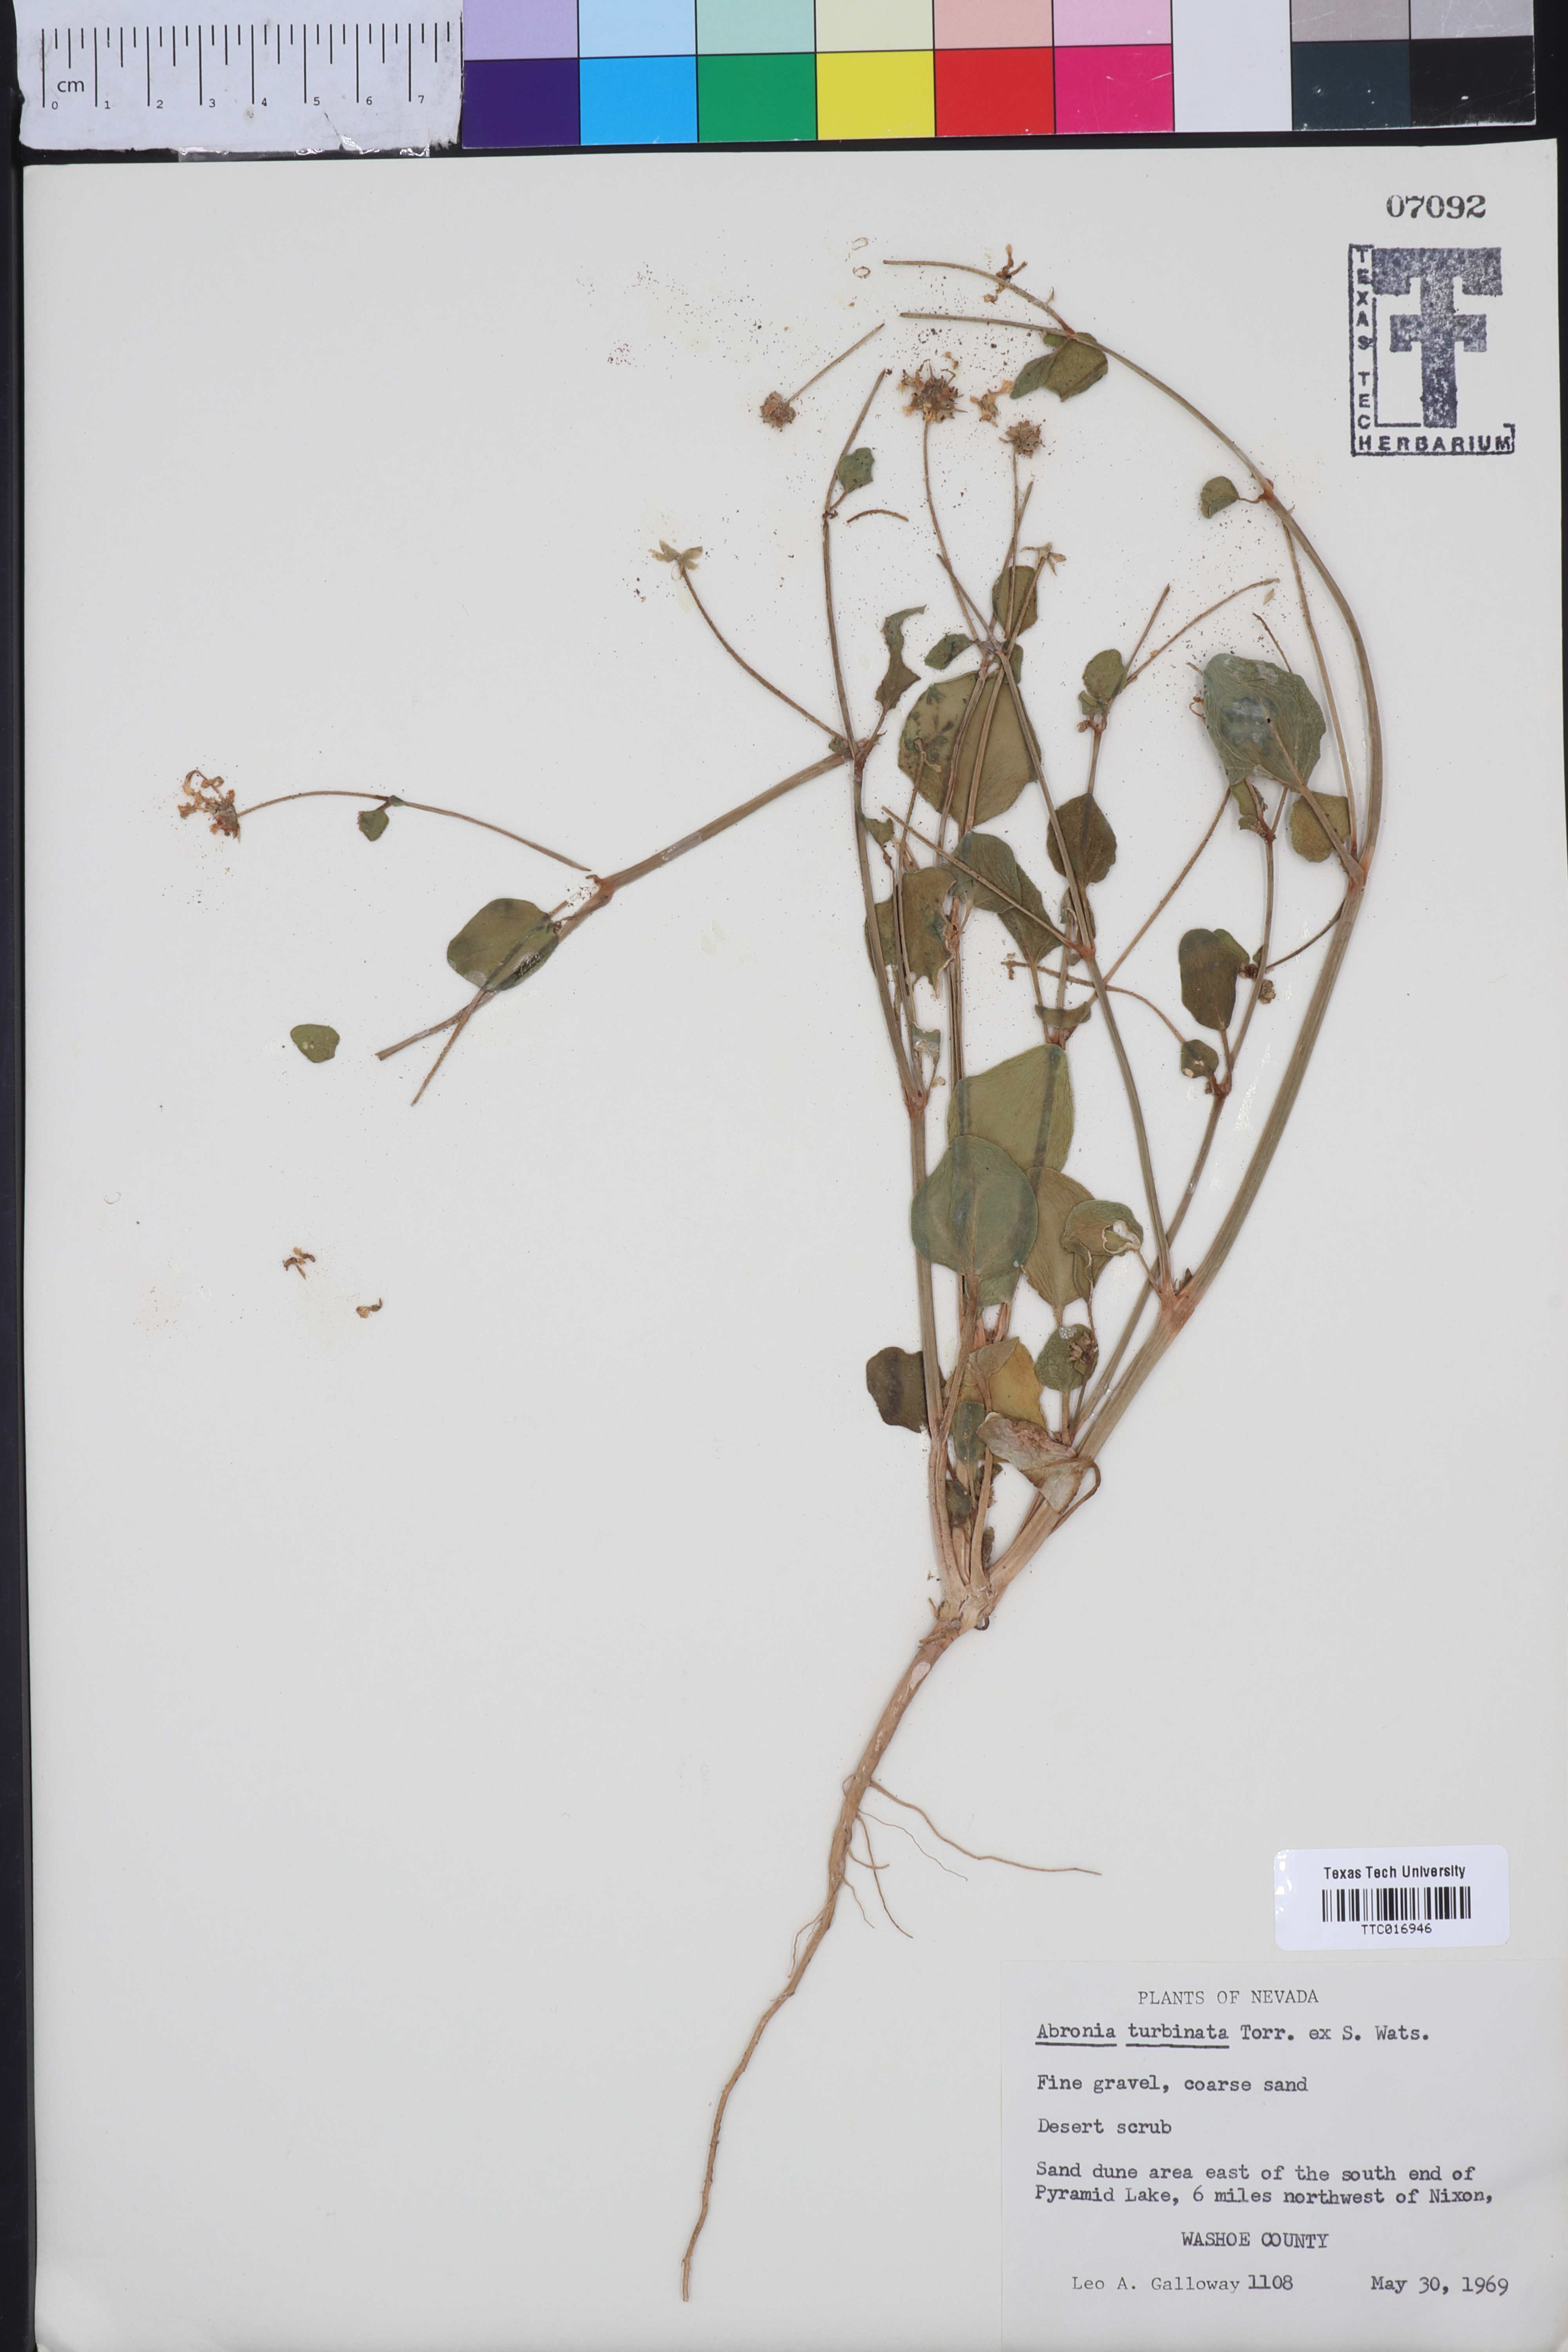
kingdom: Plantae
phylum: Tracheophyta
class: Magnoliopsida
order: Caryophyllales
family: Nyctaginaceae
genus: Abronia
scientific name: Abronia turbinata
